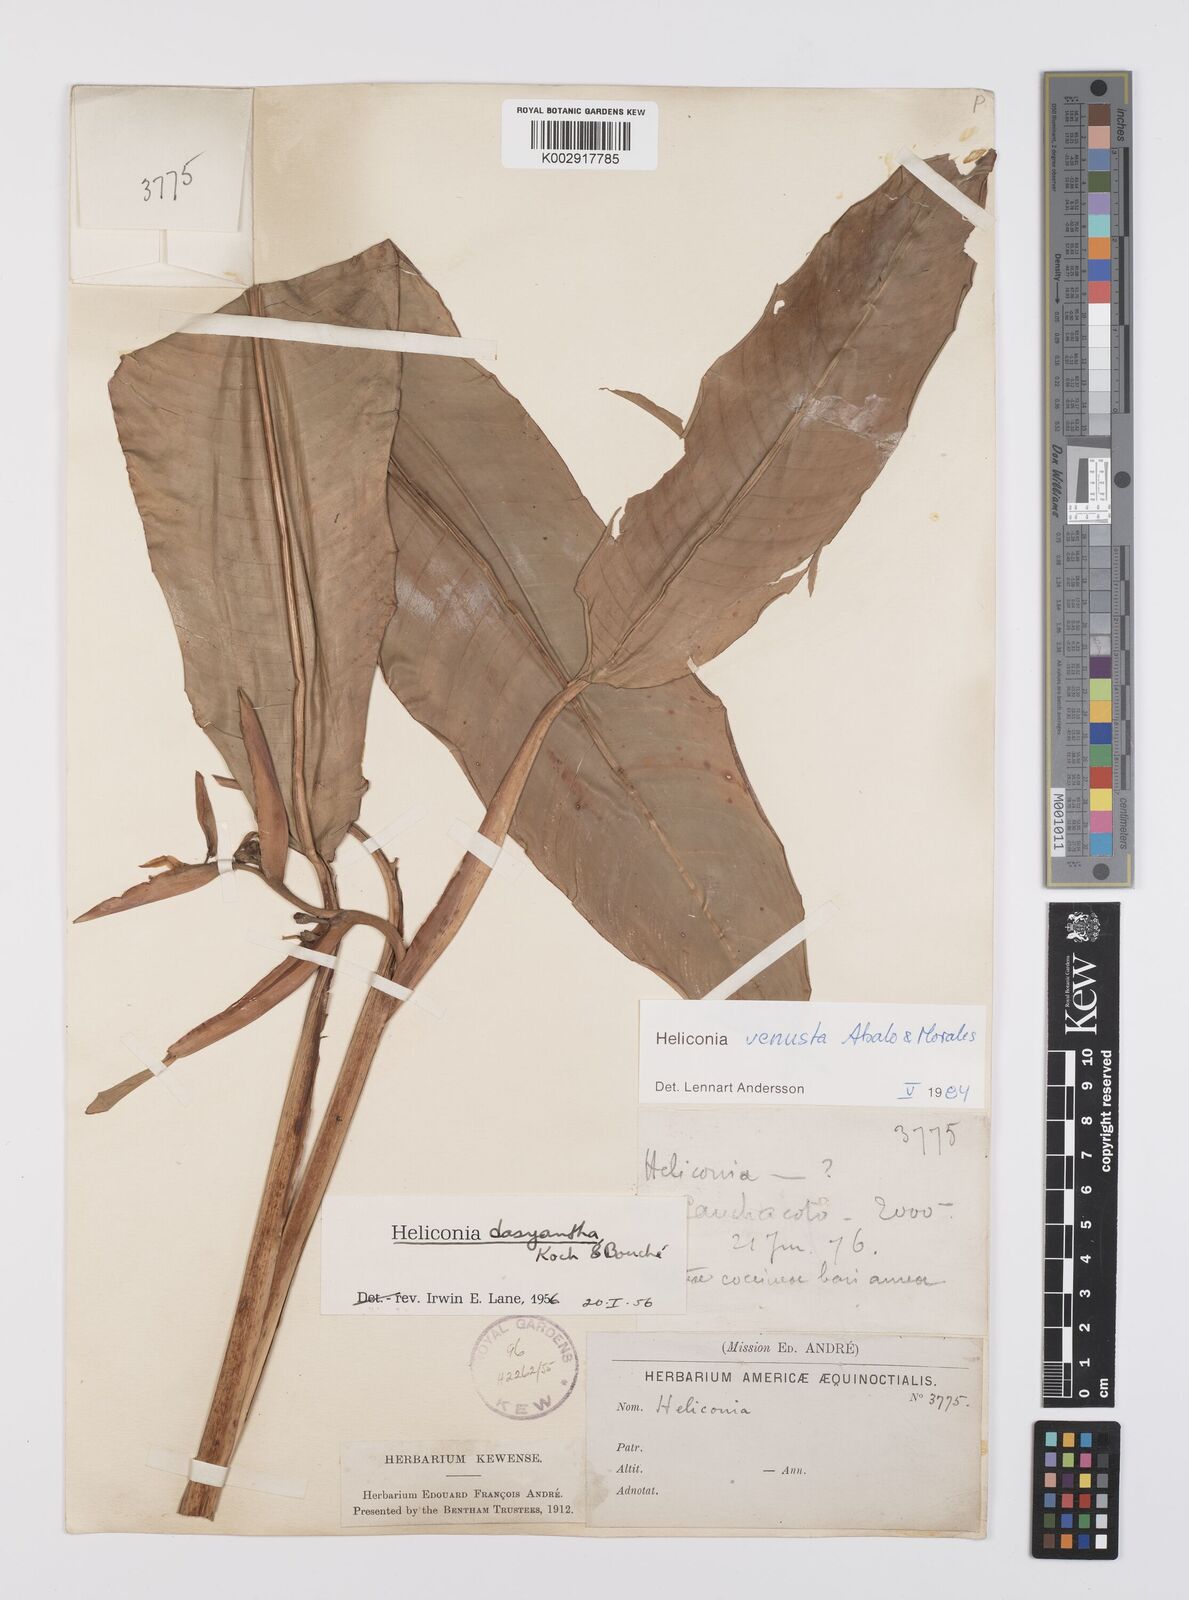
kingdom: Plantae
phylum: Tracheophyta
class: Liliopsida
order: Zingiberales
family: Heliconiaceae
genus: Heliconia
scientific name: Heliconia venusta
